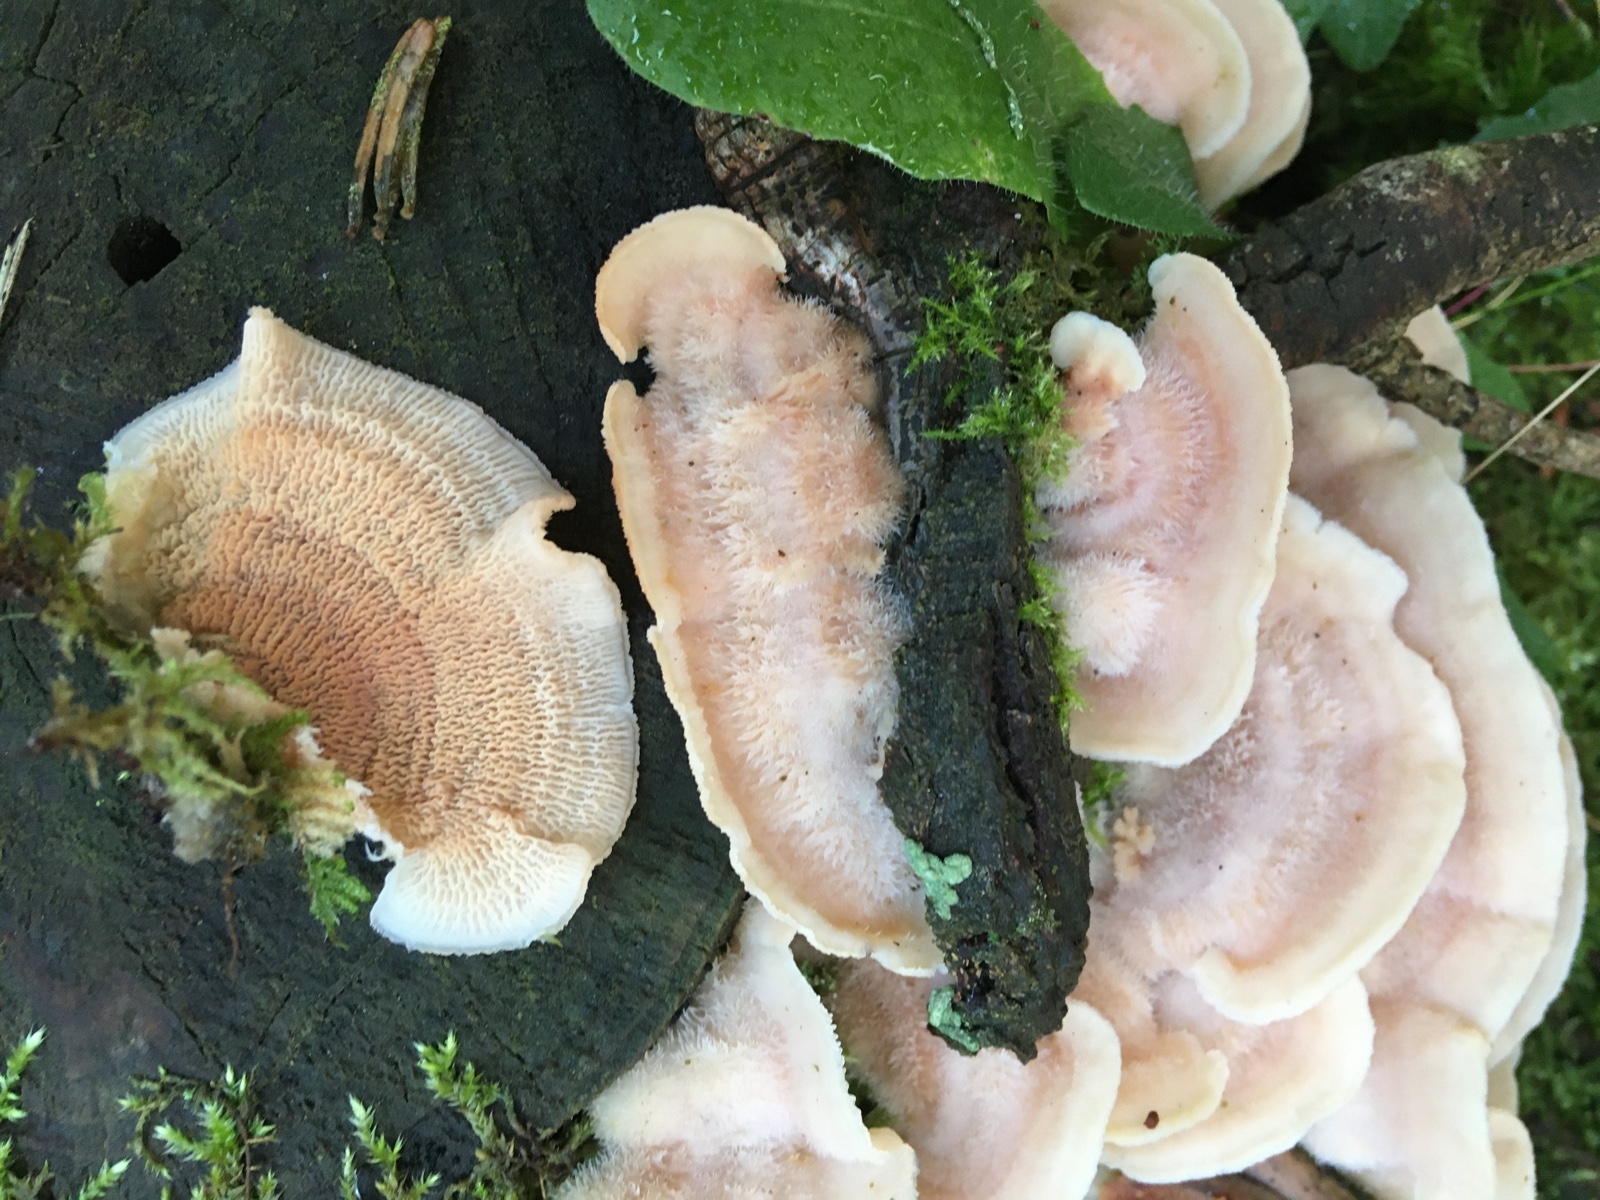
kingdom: Fungi
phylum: Basidiomycota
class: Agaricomycetes
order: Polyporales
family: Meruliaceae
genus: Phlebia
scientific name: Phlebia tremellosa
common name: bævrende åresvamp
